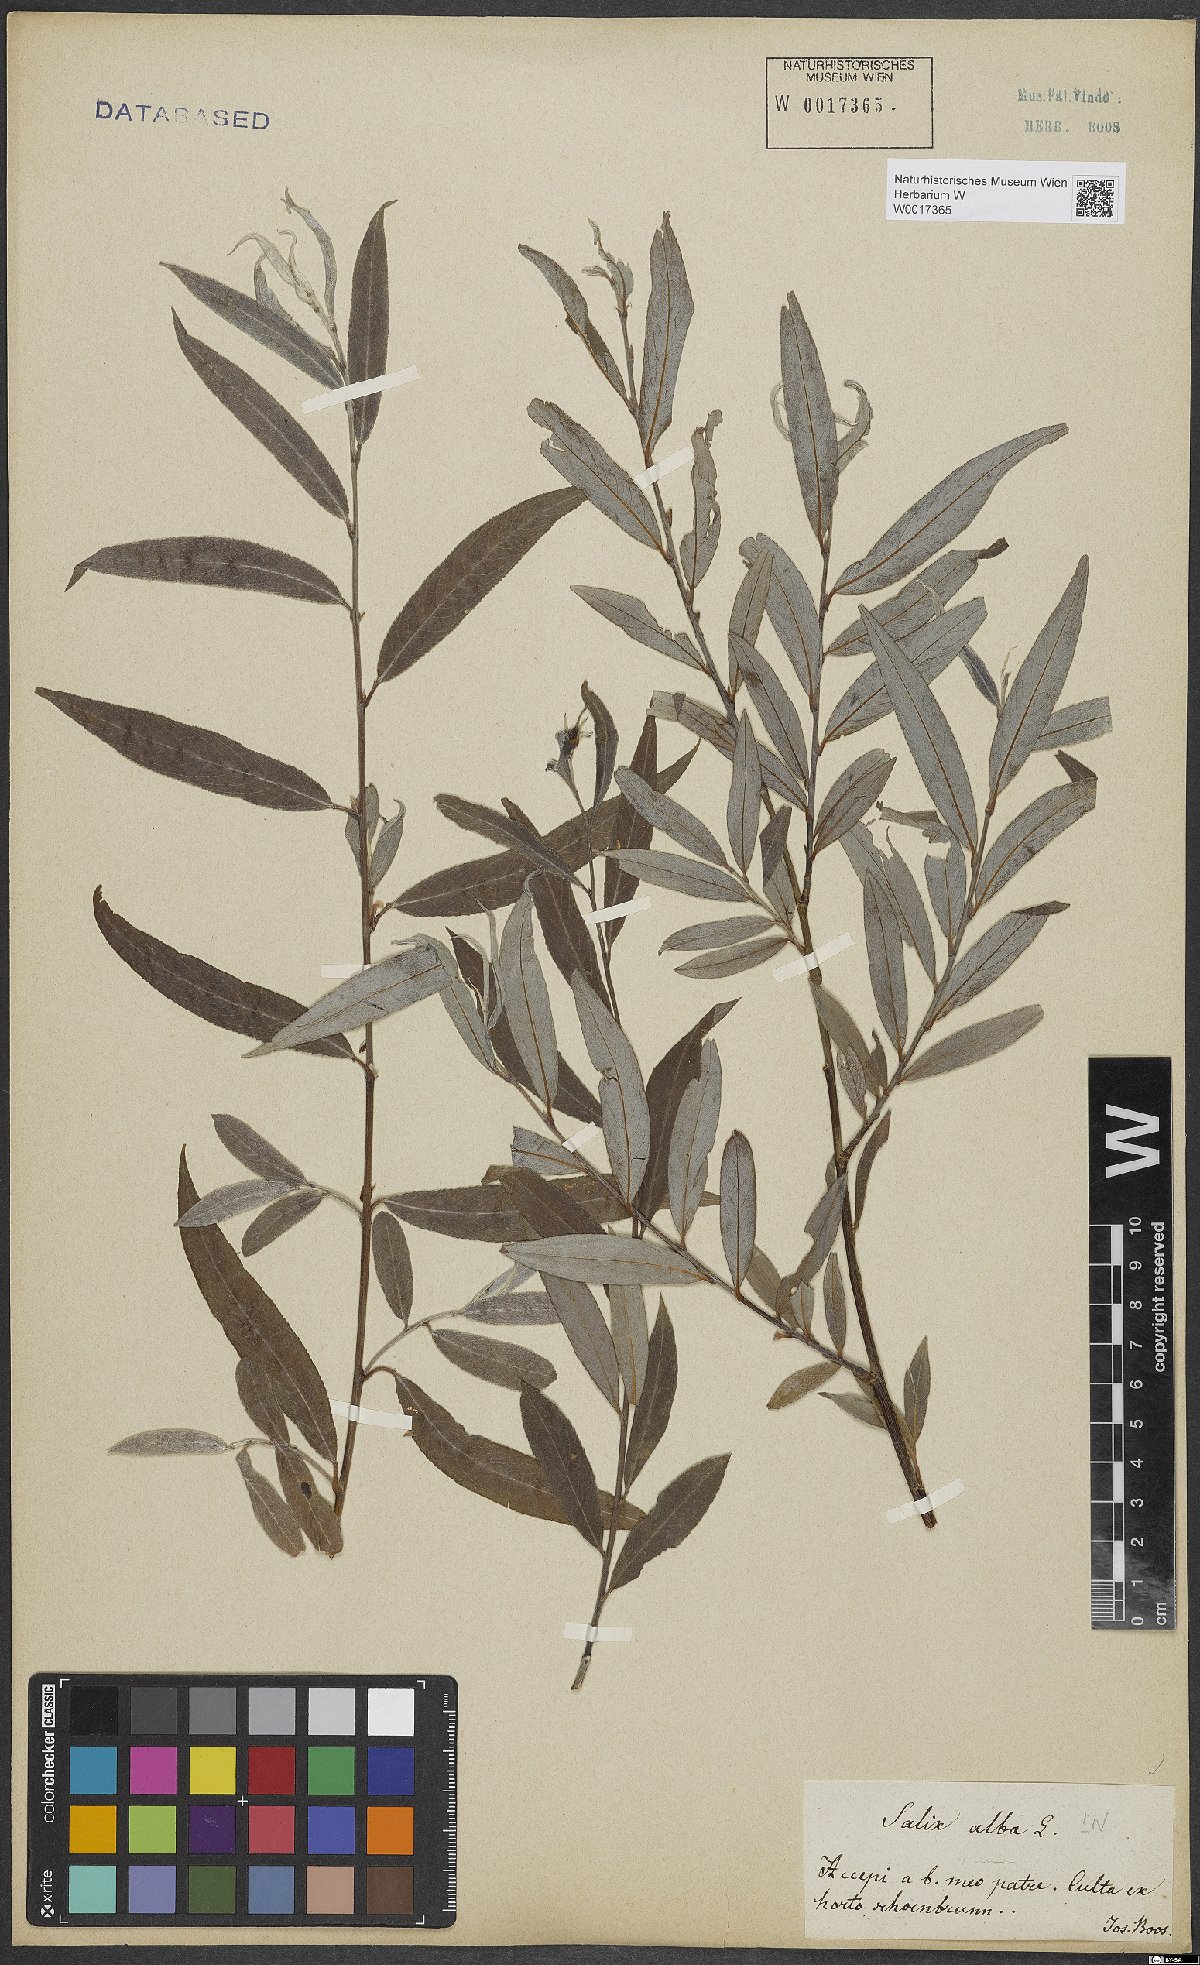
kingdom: Plantae
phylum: Tracheophyta
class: Magnoliopsida
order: Malpighiales
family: Salicaceae
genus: Salix
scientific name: Salix alba
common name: White willow
